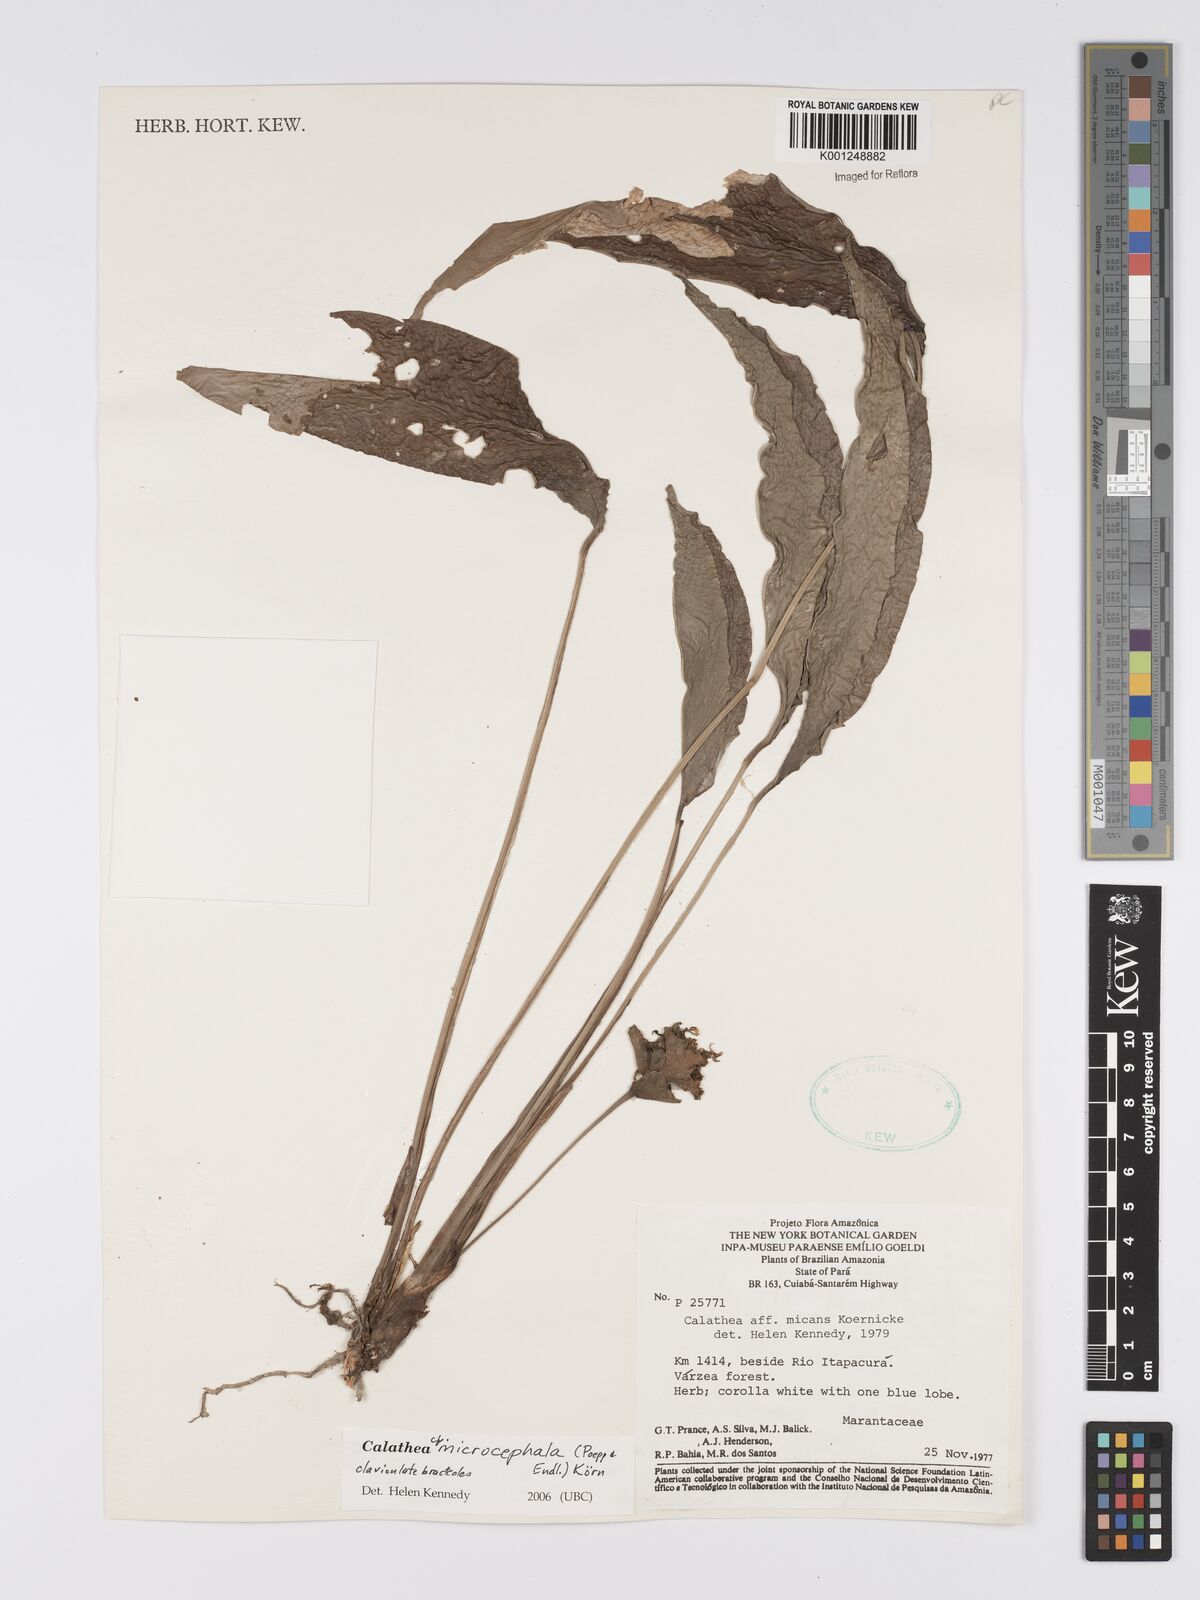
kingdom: Plantae
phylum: Tracheophyta
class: Liliopsida
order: Zingiberales
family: Marantaceae
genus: Goeppertia
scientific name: Goeppertia microcephala
